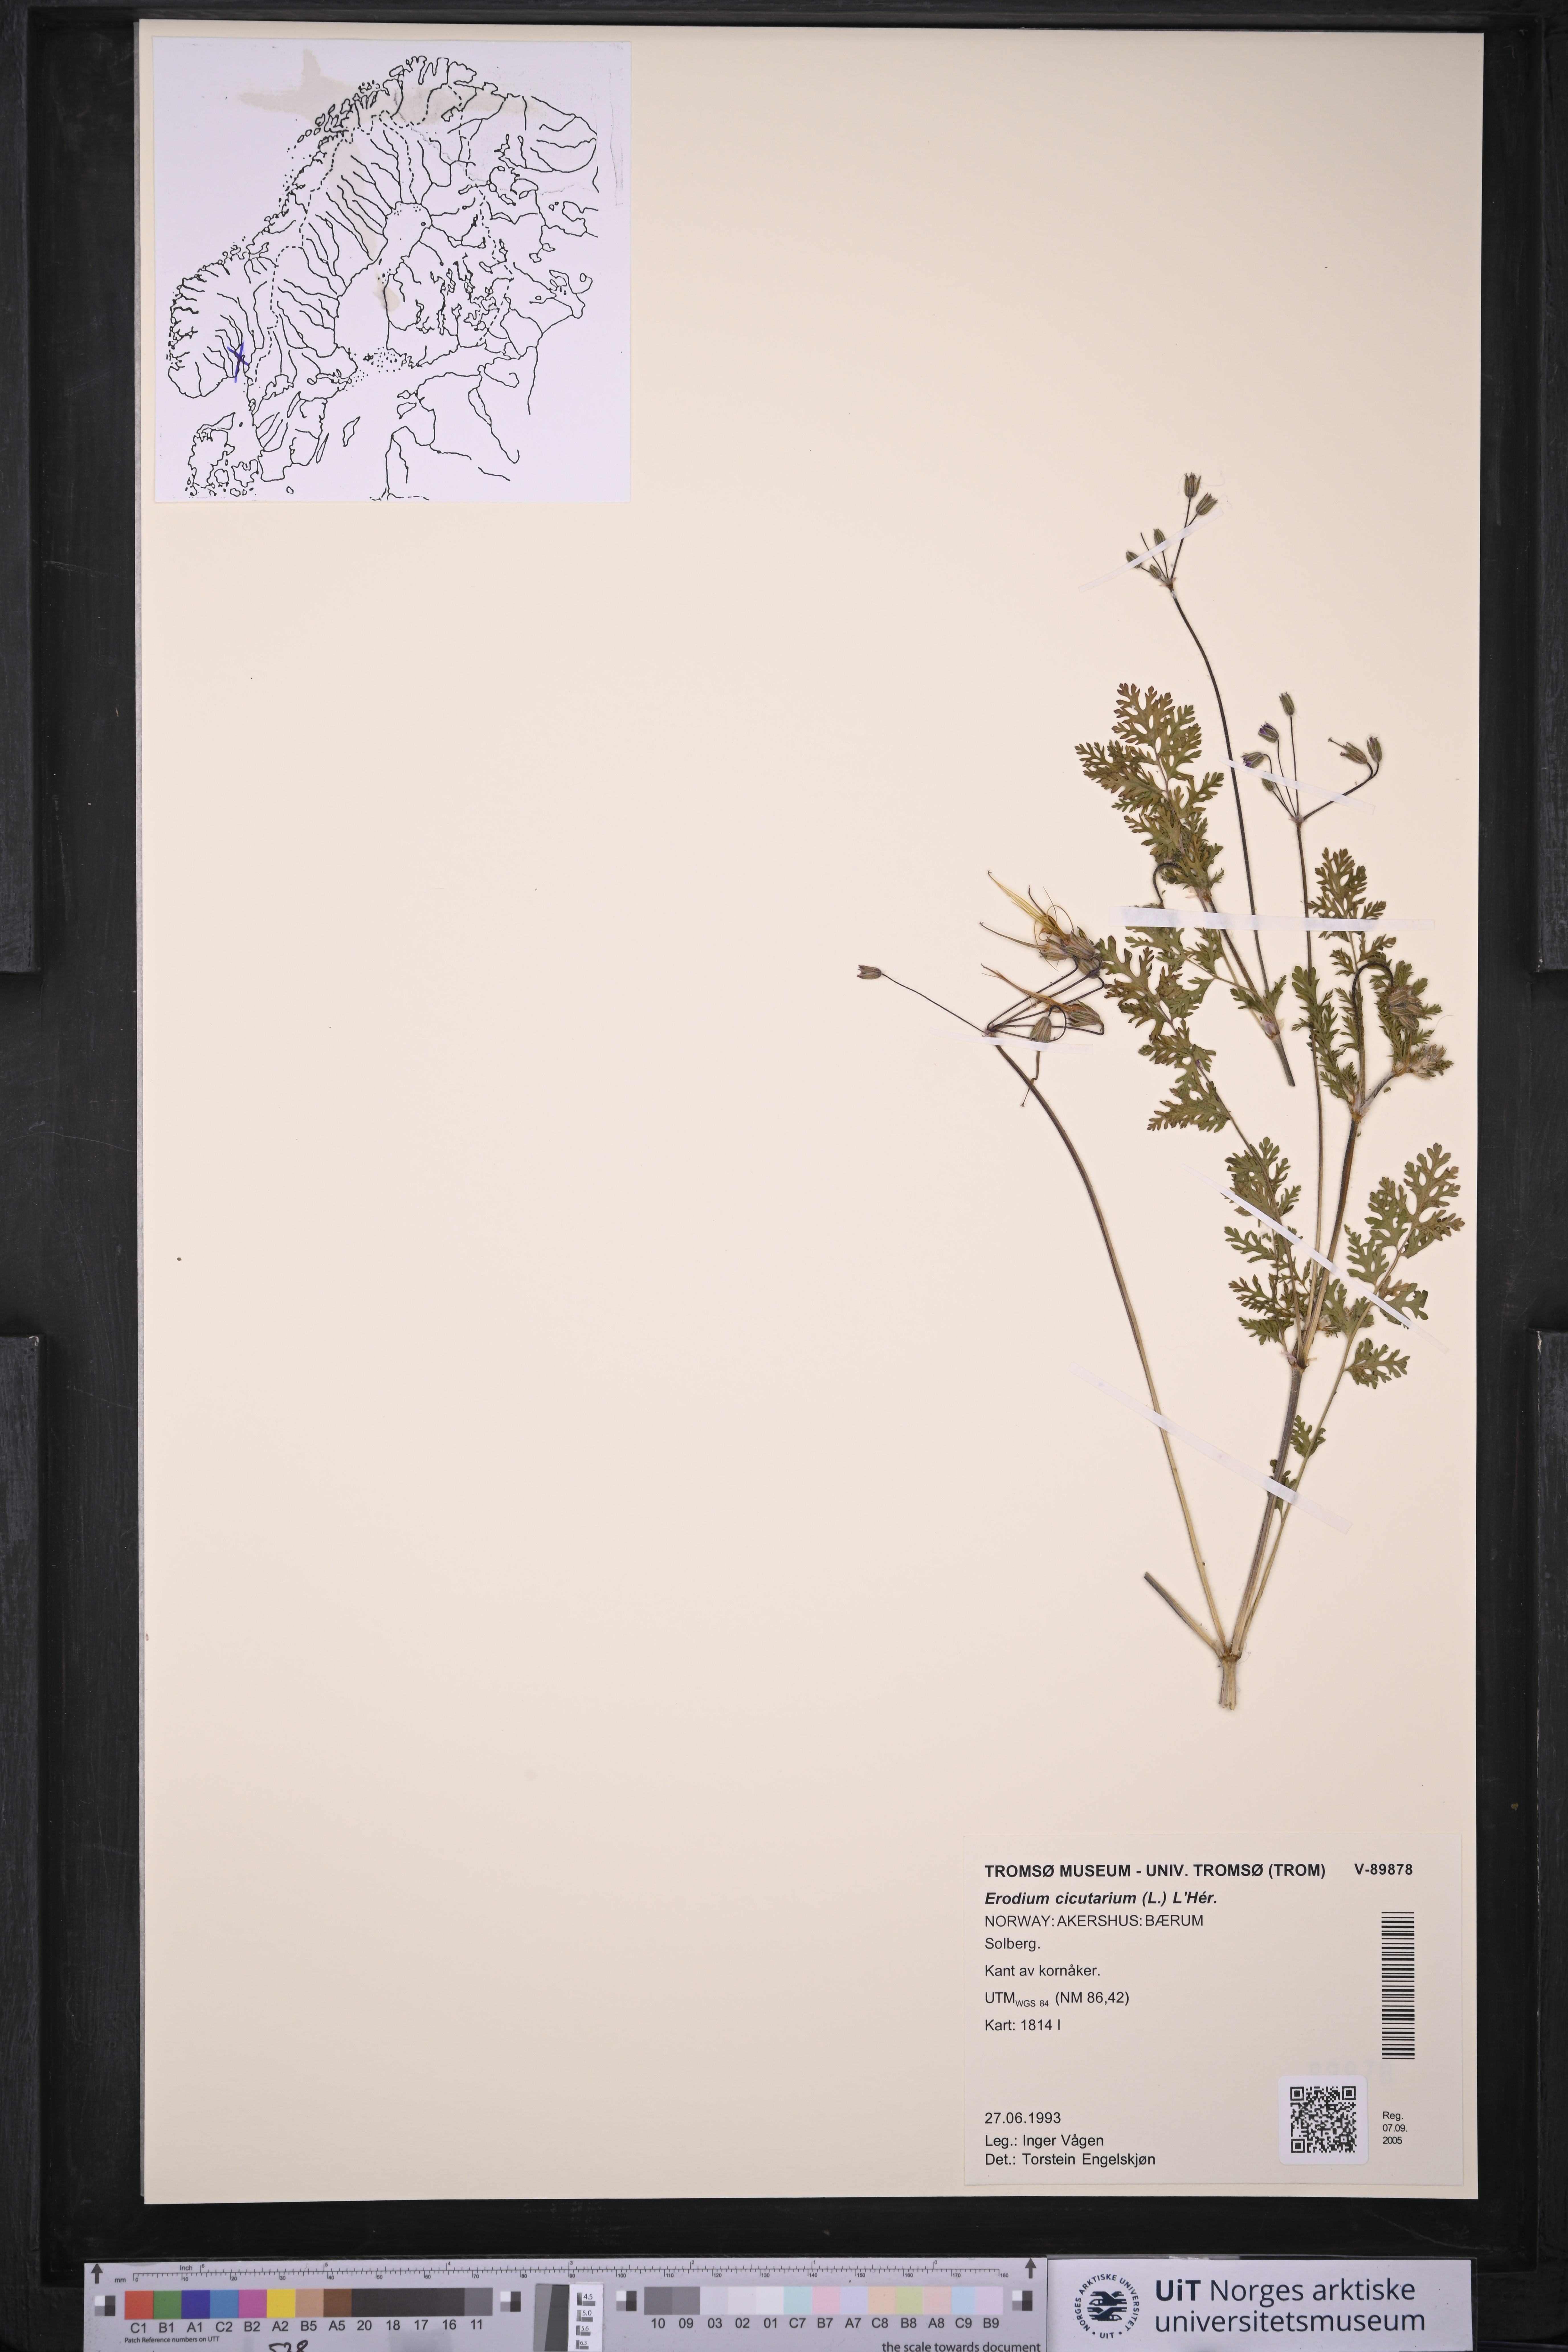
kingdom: Plantae
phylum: Tracheophyta
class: Magnoliopsida
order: Geraniales
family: Geraniaceae
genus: Erodium
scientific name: Erodium cicutarium
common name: Common stork's-bill
